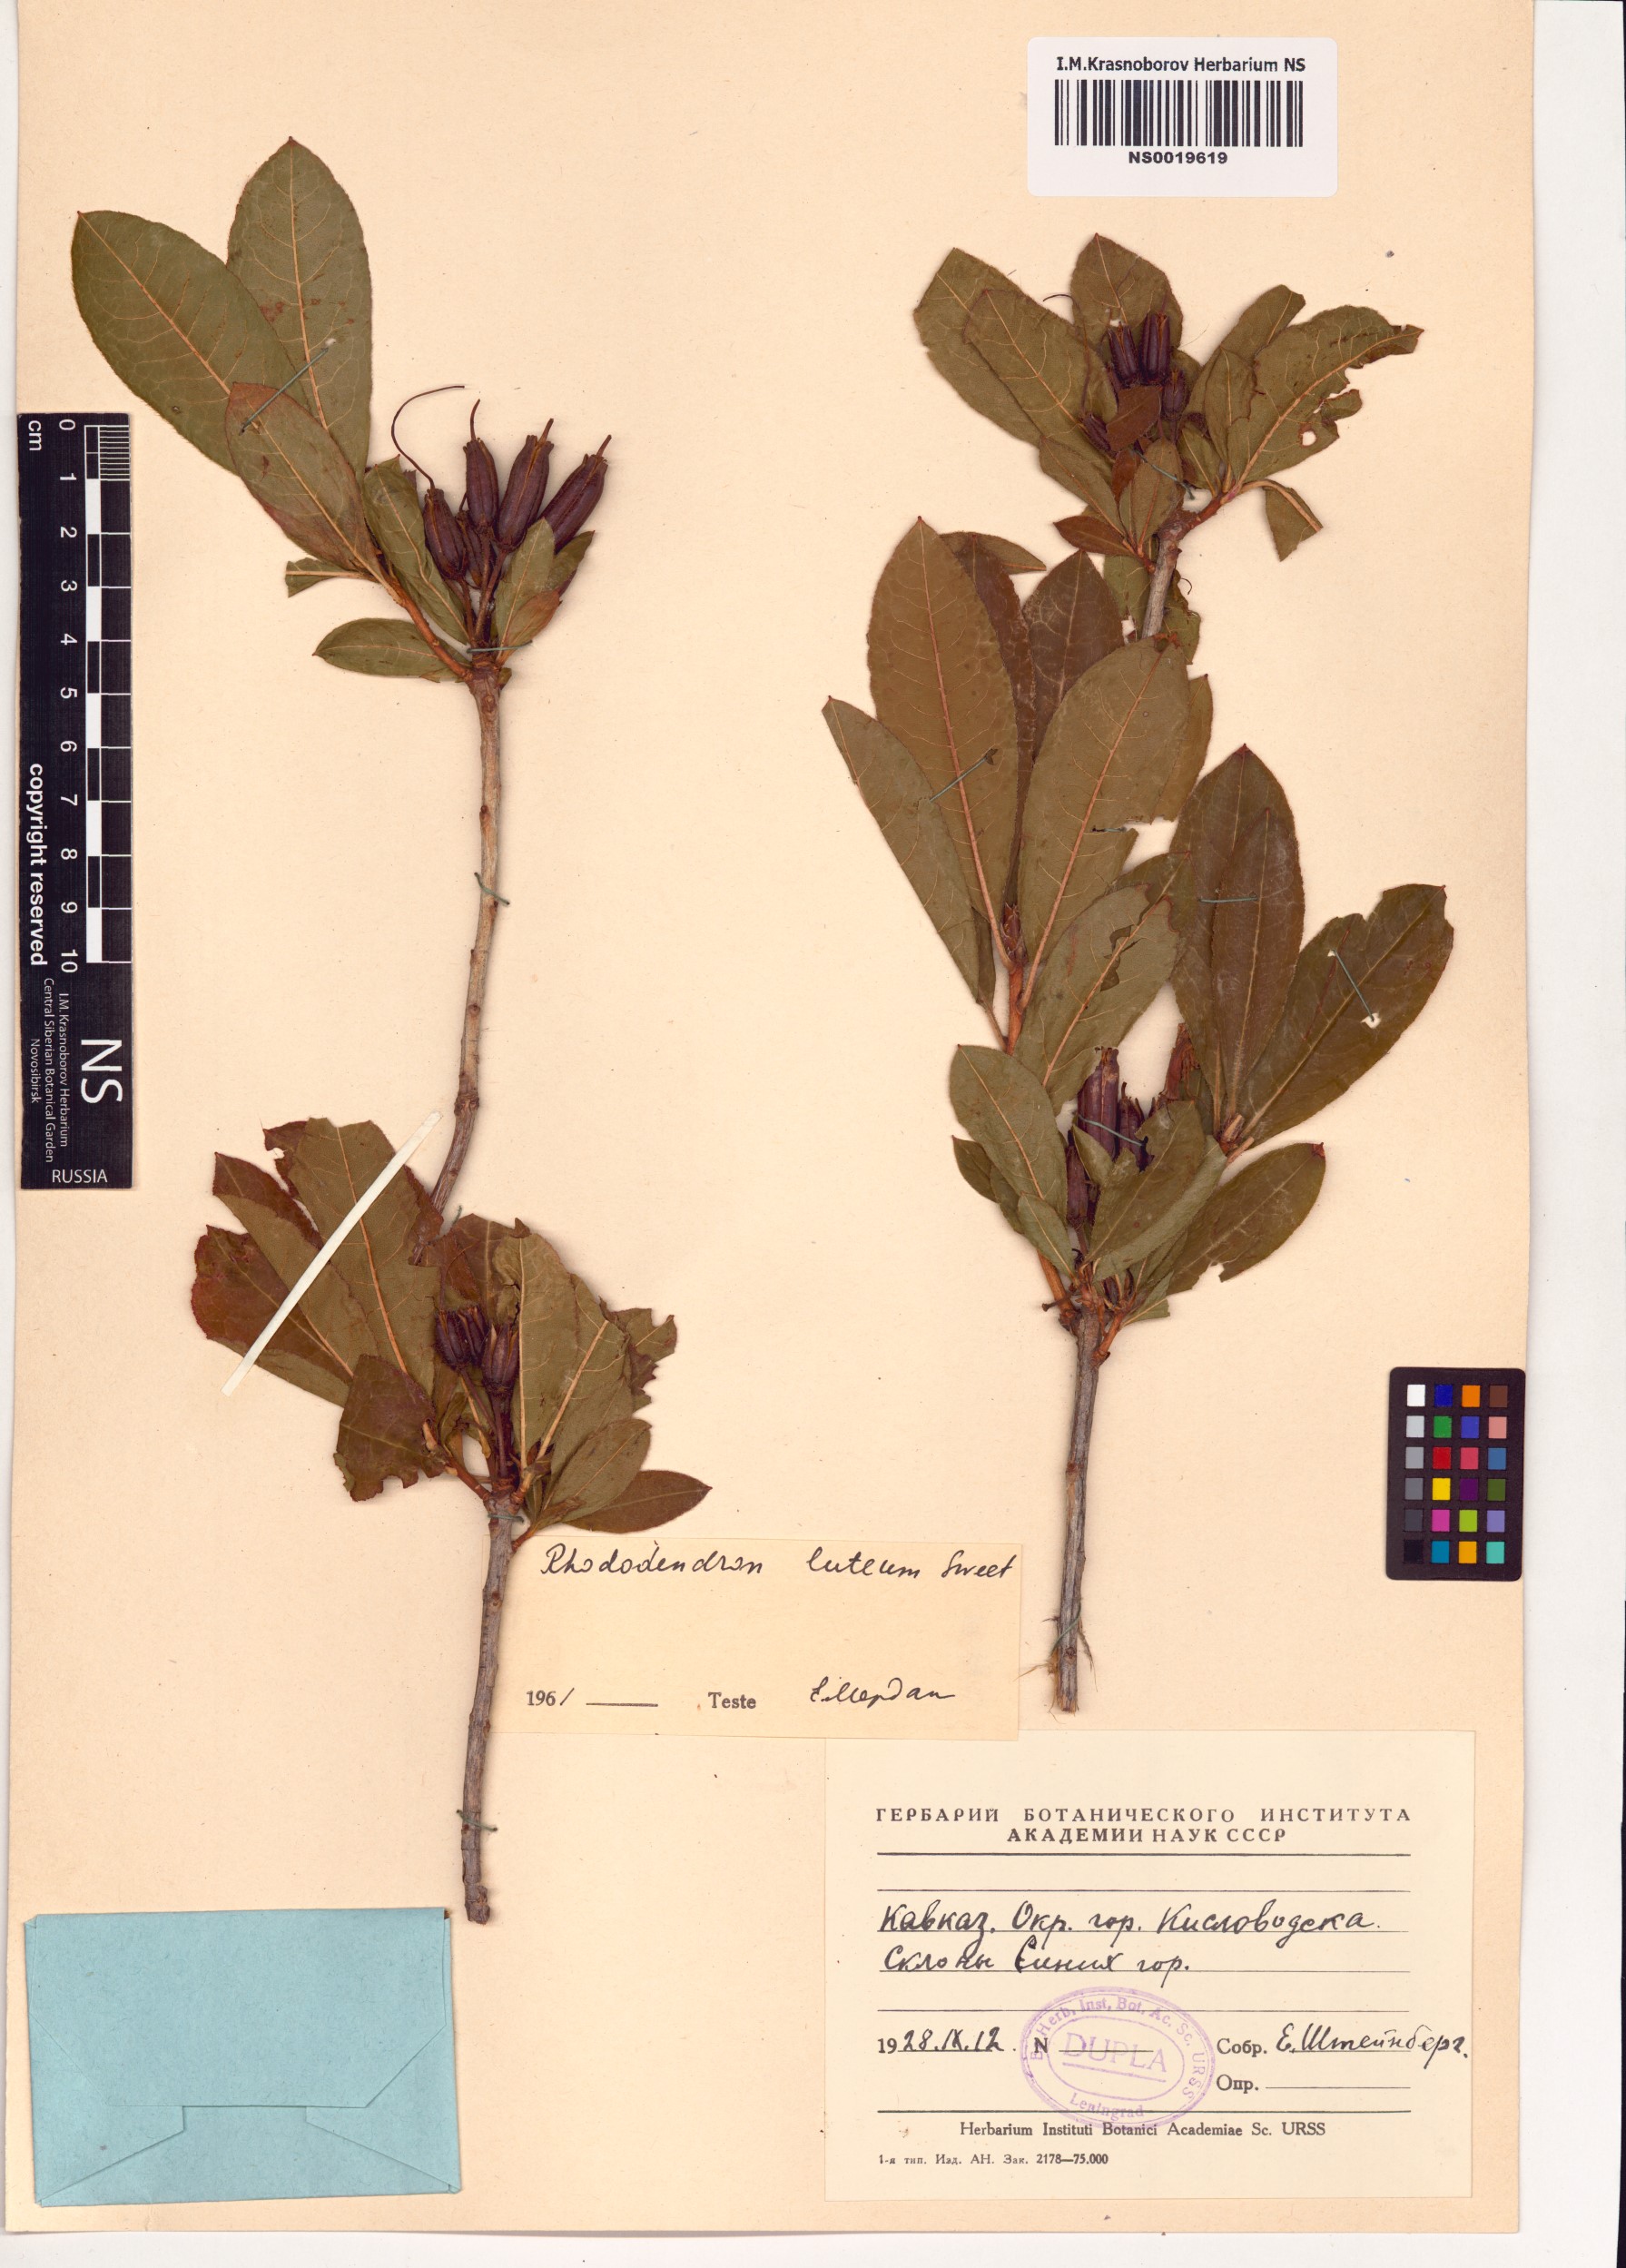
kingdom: Plantae
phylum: Tracheophyta
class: Magnoliopsida
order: Ericales
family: Ericaceae
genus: Rhododendron
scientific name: Rhododendron luteum
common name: Yellow azalea
